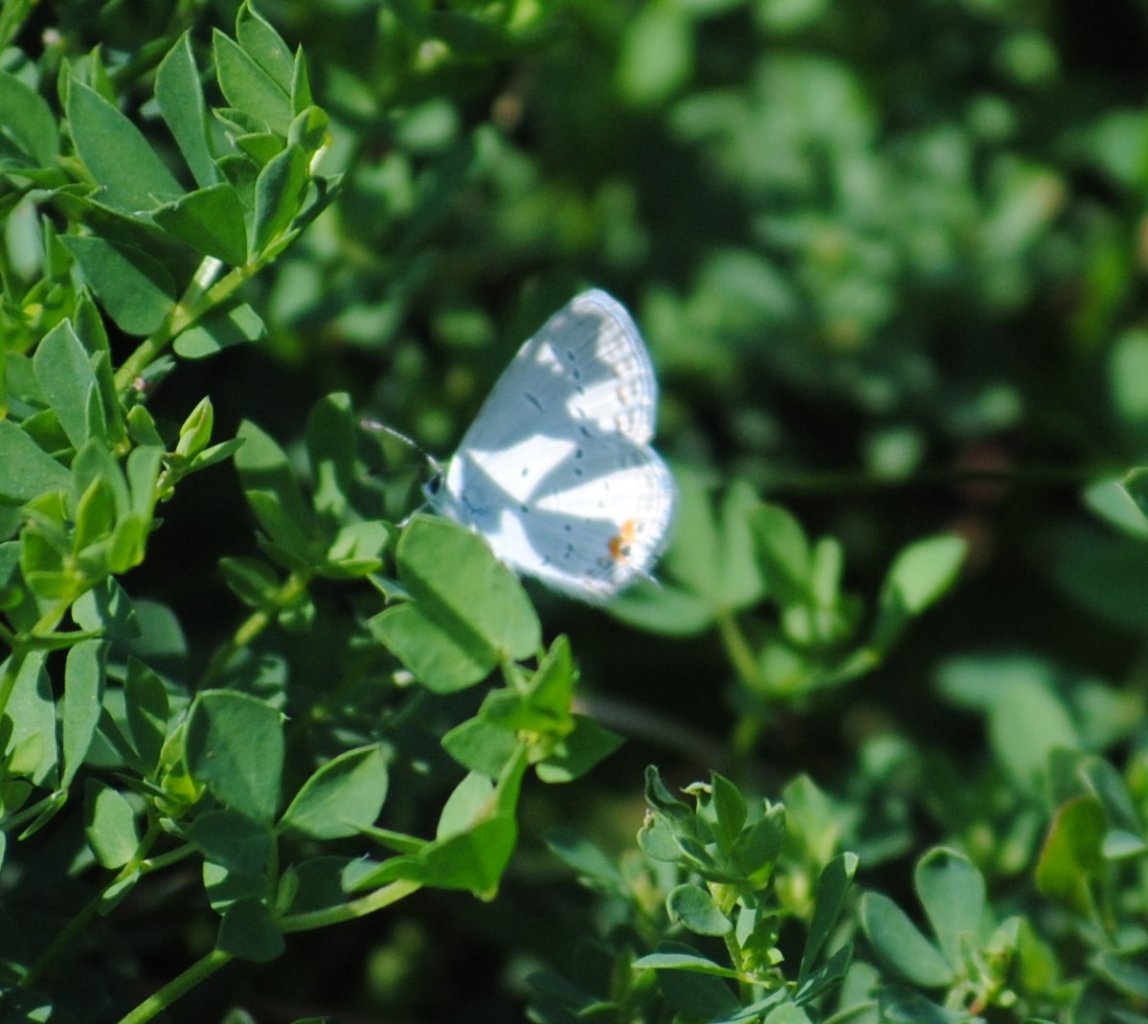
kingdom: Animalia
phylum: Arthropoda
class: Insecta
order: Lepidoptera
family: Lycaenidae
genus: Elkalyce
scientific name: Elkalyce comyntas
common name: Eastern Tailed-Blue
